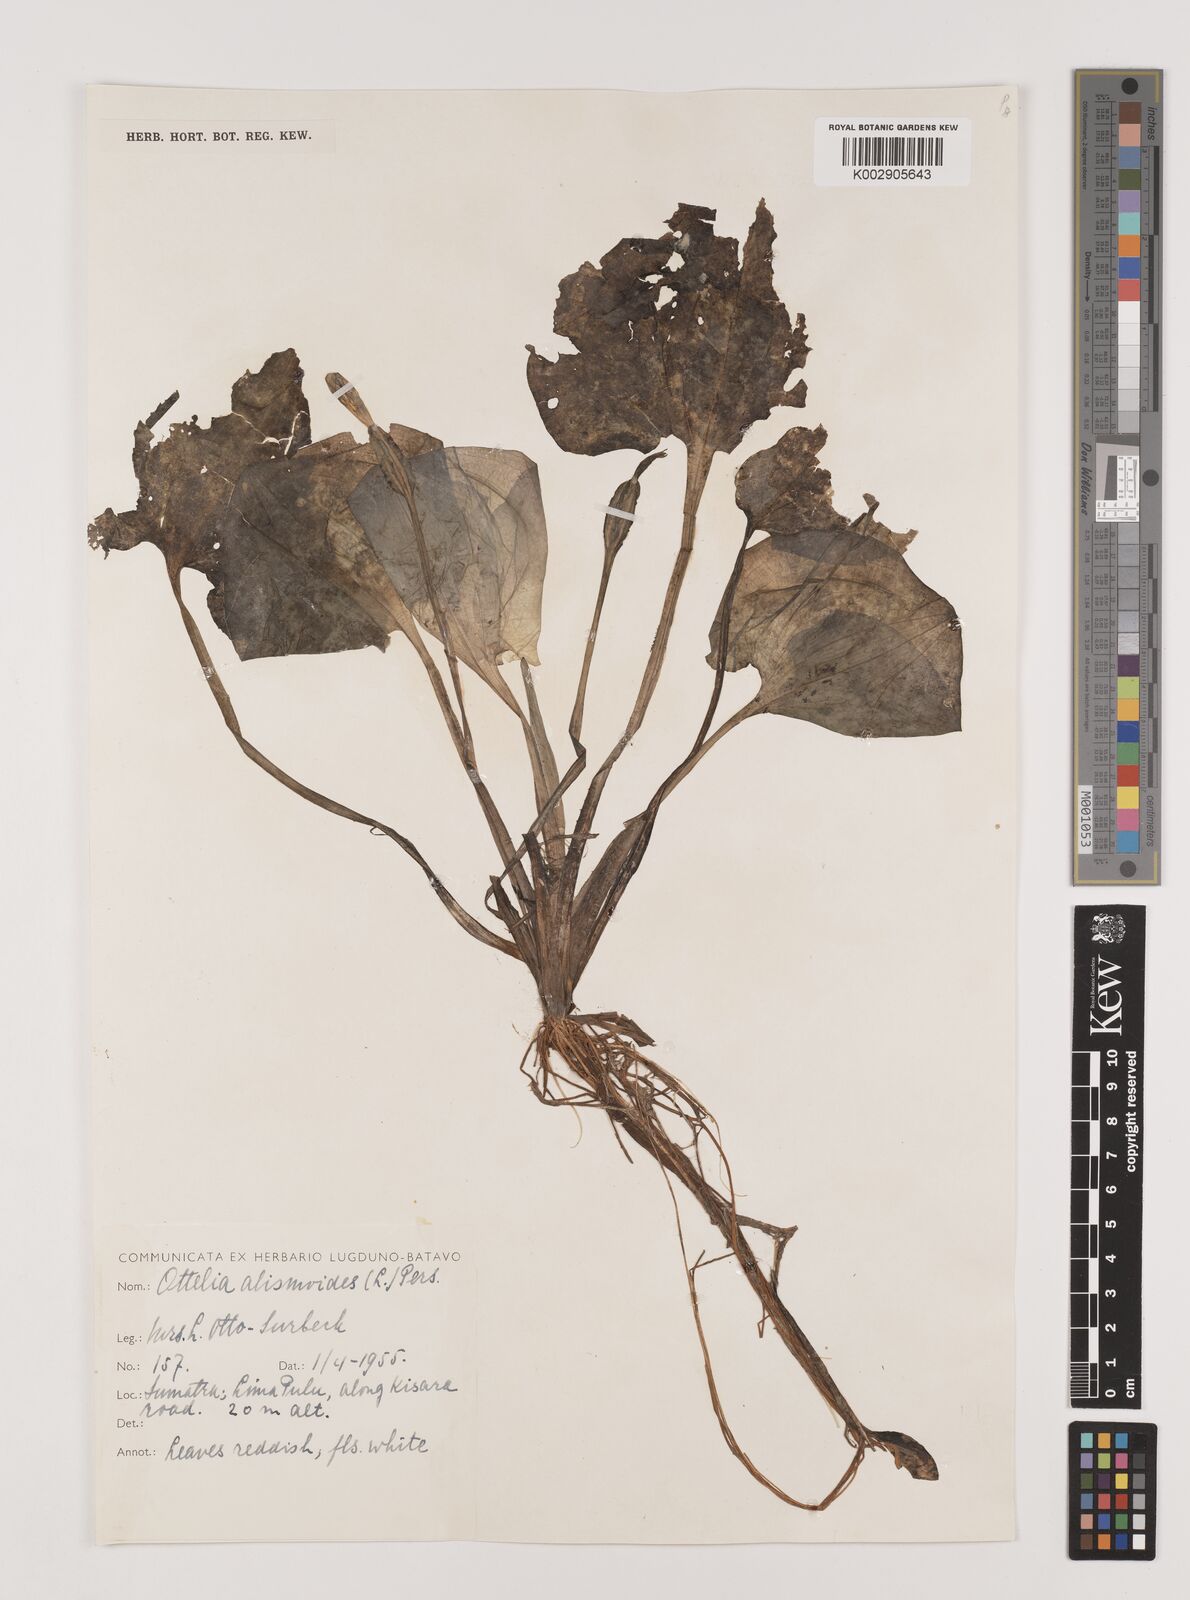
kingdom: Plantae
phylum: Tracheophyta
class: Liliopsida
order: Alismatales
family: Hydrocharitaceae
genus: Ottelia
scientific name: Ottelia alismoides
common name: Duck-lettuce
